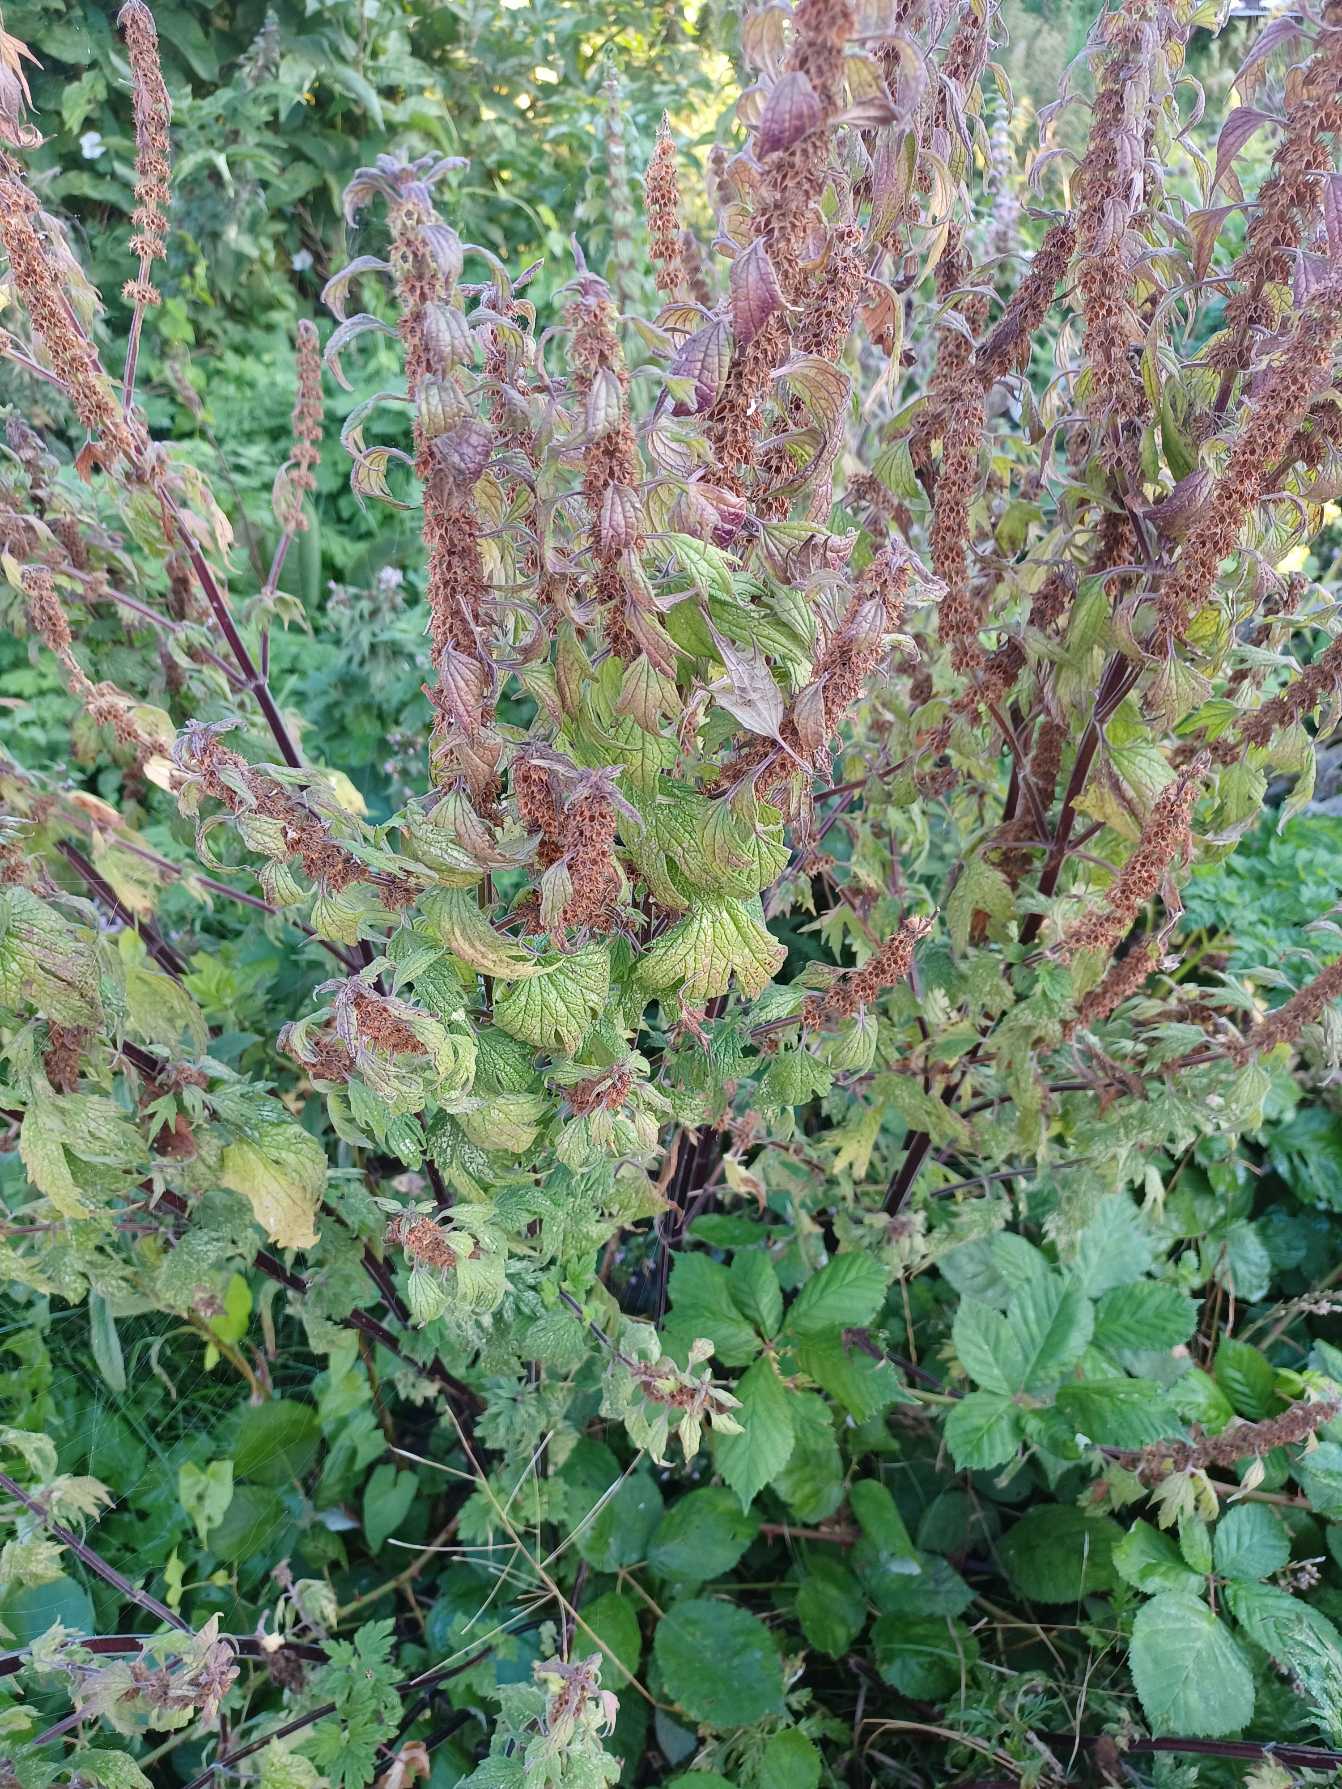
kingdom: Plantae
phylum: Tracheophyta
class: Magnoliopsida
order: Lamiales
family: Lamiaceae
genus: Leonurus
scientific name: Leonurus cardiaca
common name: Hjertespand
